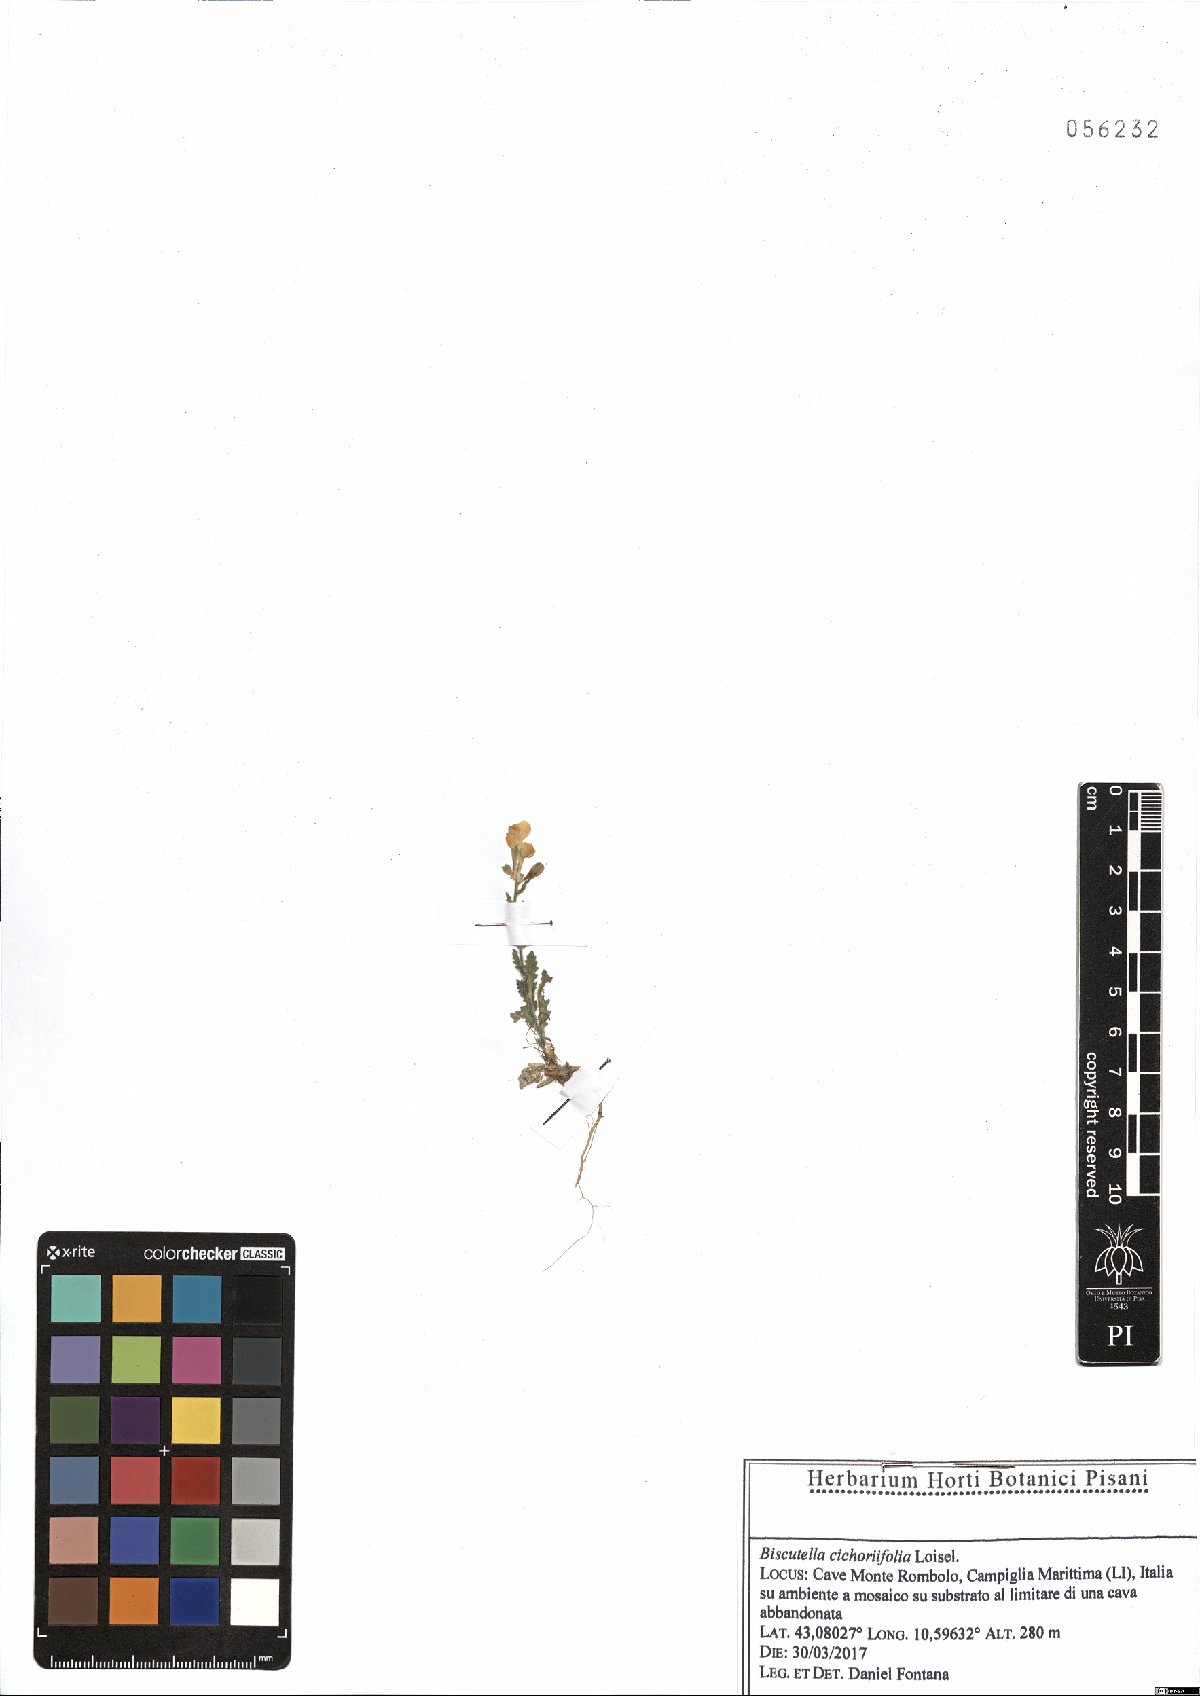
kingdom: Plantae
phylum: Tracheophyta
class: Magnoliopsida
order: Brassicales
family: Brassicaceae
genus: Biscutella
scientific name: Biscutella cichoriifolia
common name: Chicory-leaf buckler mustard
